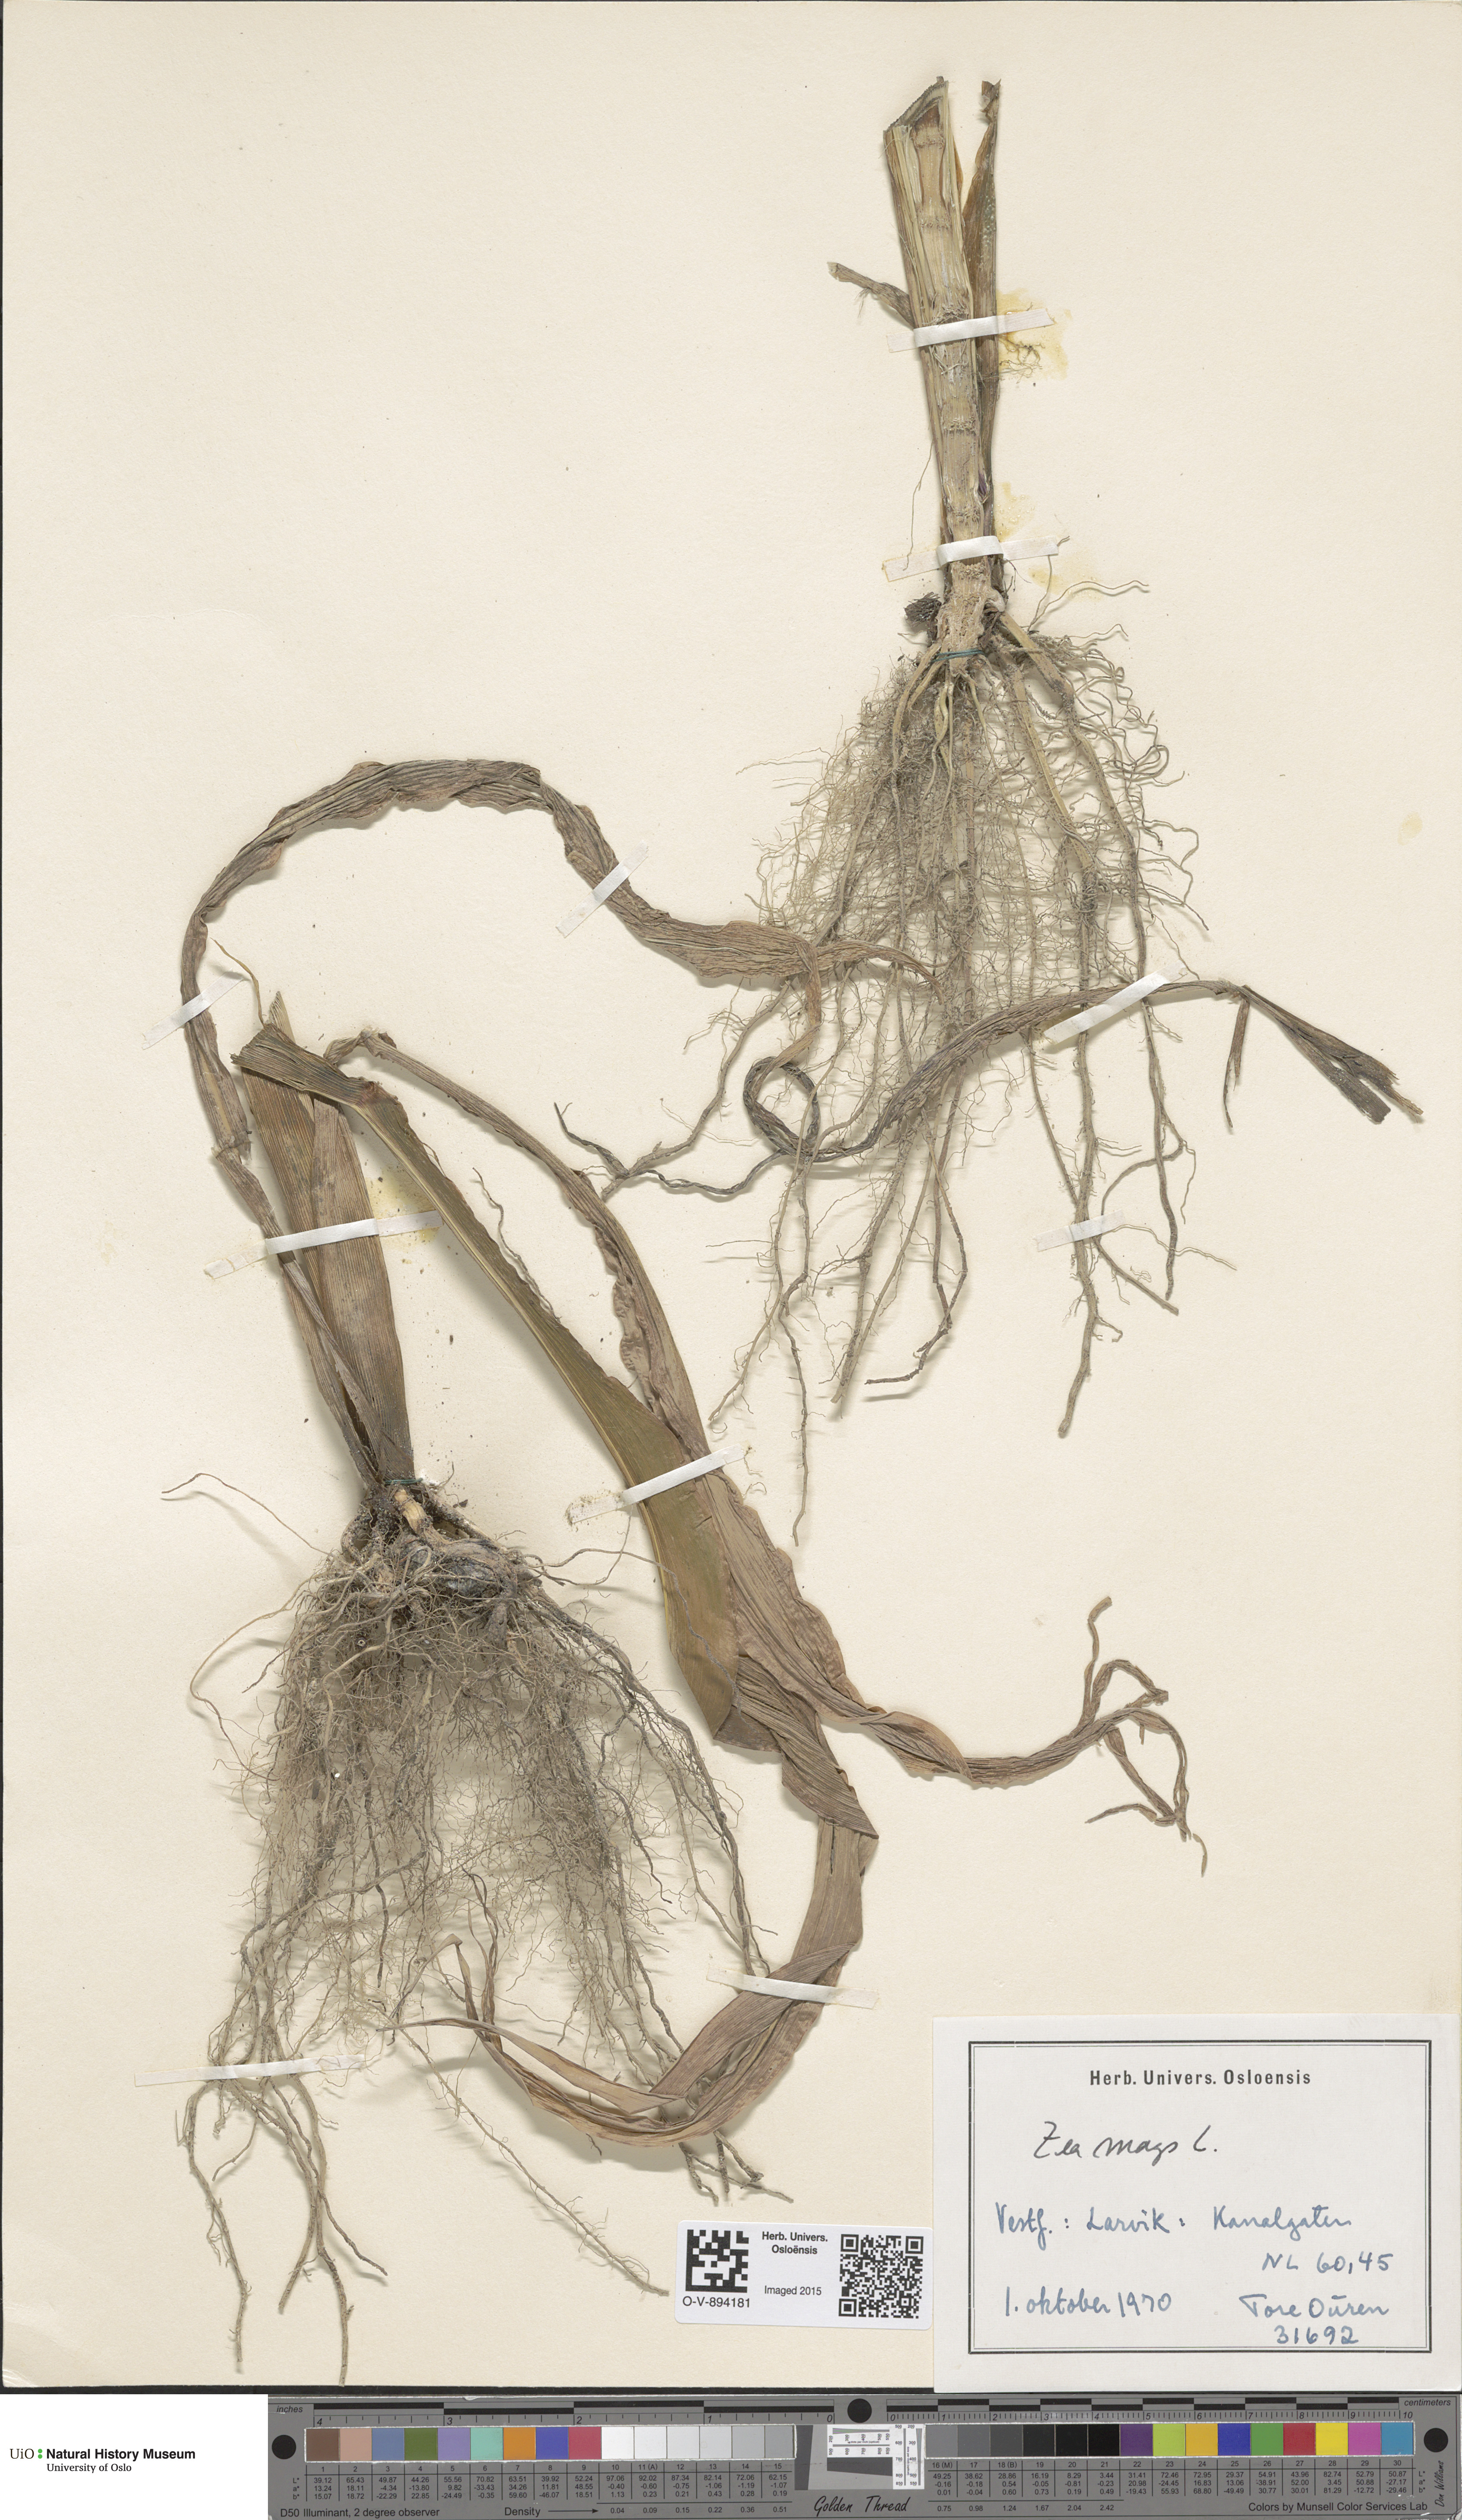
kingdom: Plantae
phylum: Tracheophyta
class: Liliopsida
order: Poales
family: Poaceae
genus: Zea
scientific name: Zea mays
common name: Maize
